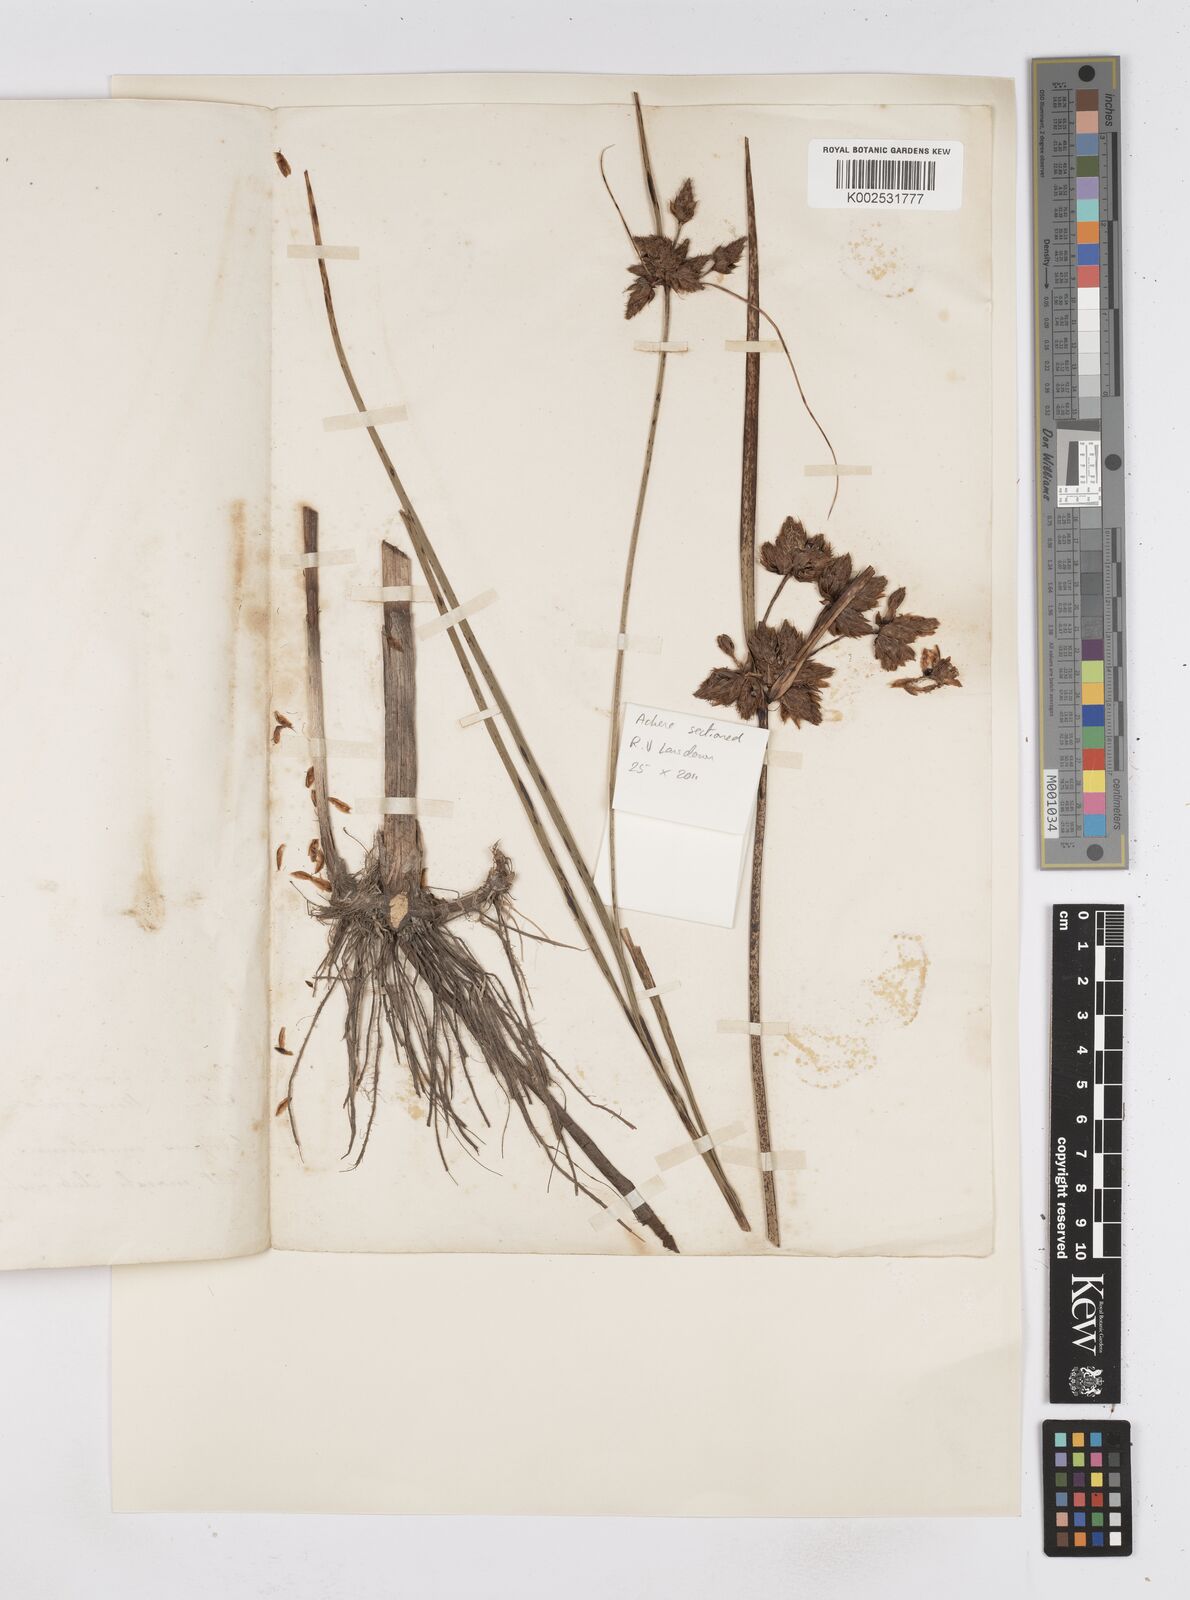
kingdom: Plantae
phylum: Tracheophyta
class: Liliopsida
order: Poales
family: Cyperaceae
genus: Bolboschoenus
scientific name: Bolboschoenus maritimus
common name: Sea club-rush
